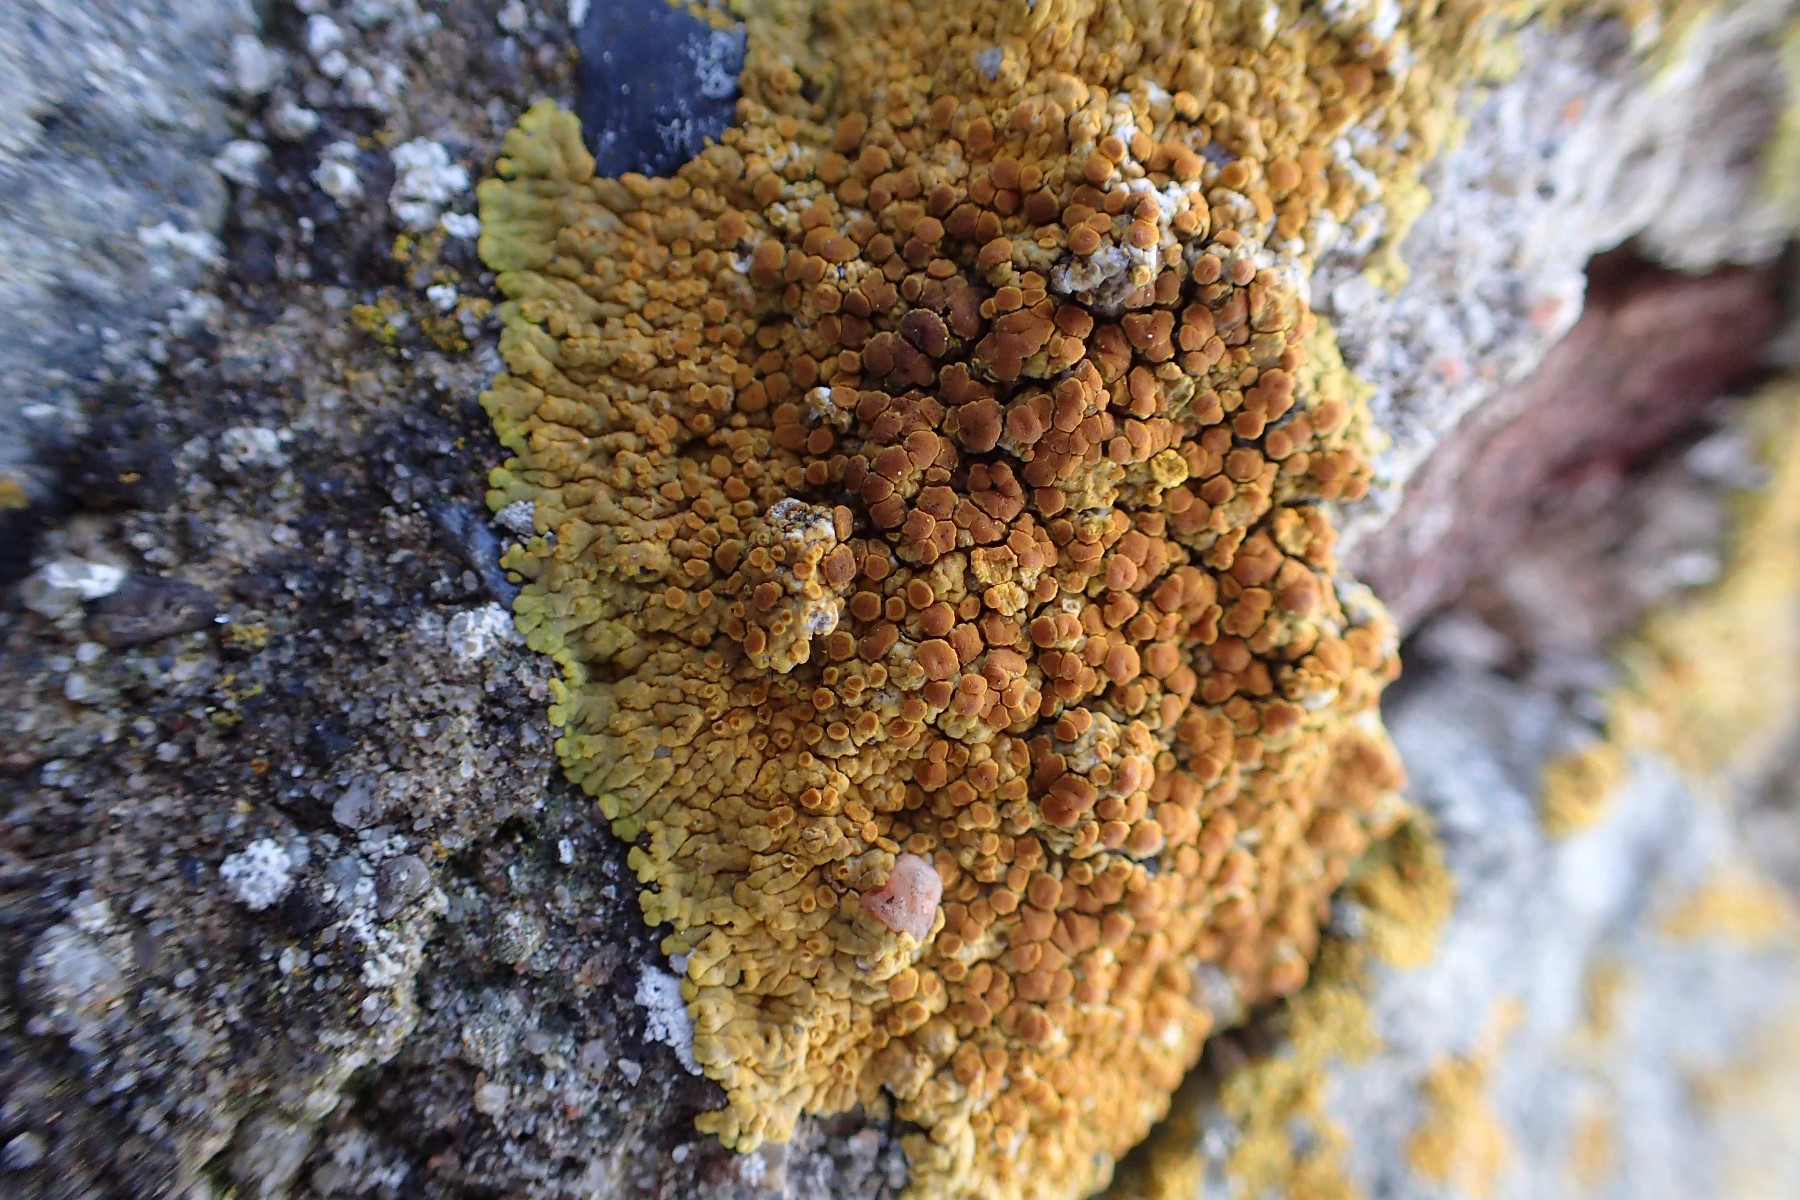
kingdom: Fungi
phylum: Ascomycota
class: Lecanoromycetes
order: Teloschistales
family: Teloschistaceae
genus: Variospora
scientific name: Variospora flavescens
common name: kalk-orangelav
